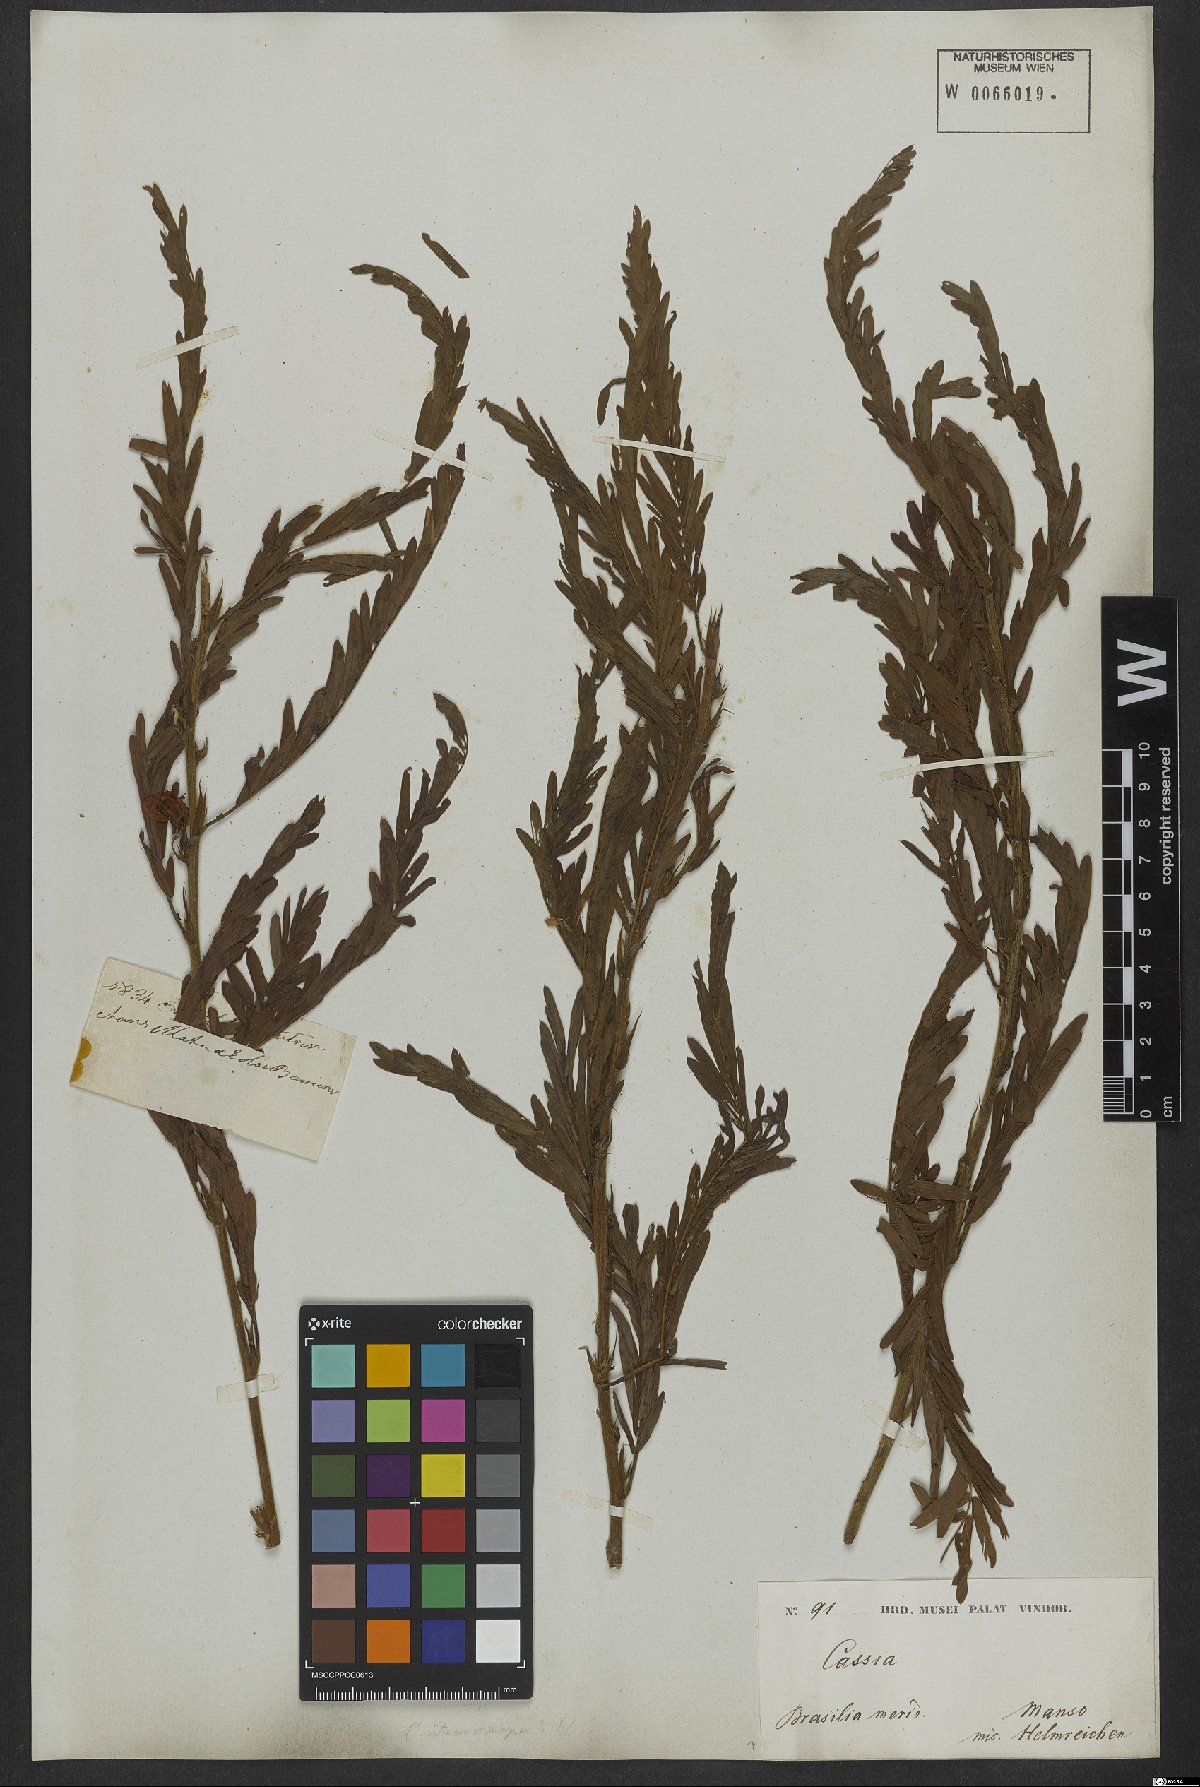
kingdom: Plantae
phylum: Tracheophyta
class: Magnoliopsida
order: Fabales
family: Fabaceae
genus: Chamaecrista
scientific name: Chamaecrista calycioides
